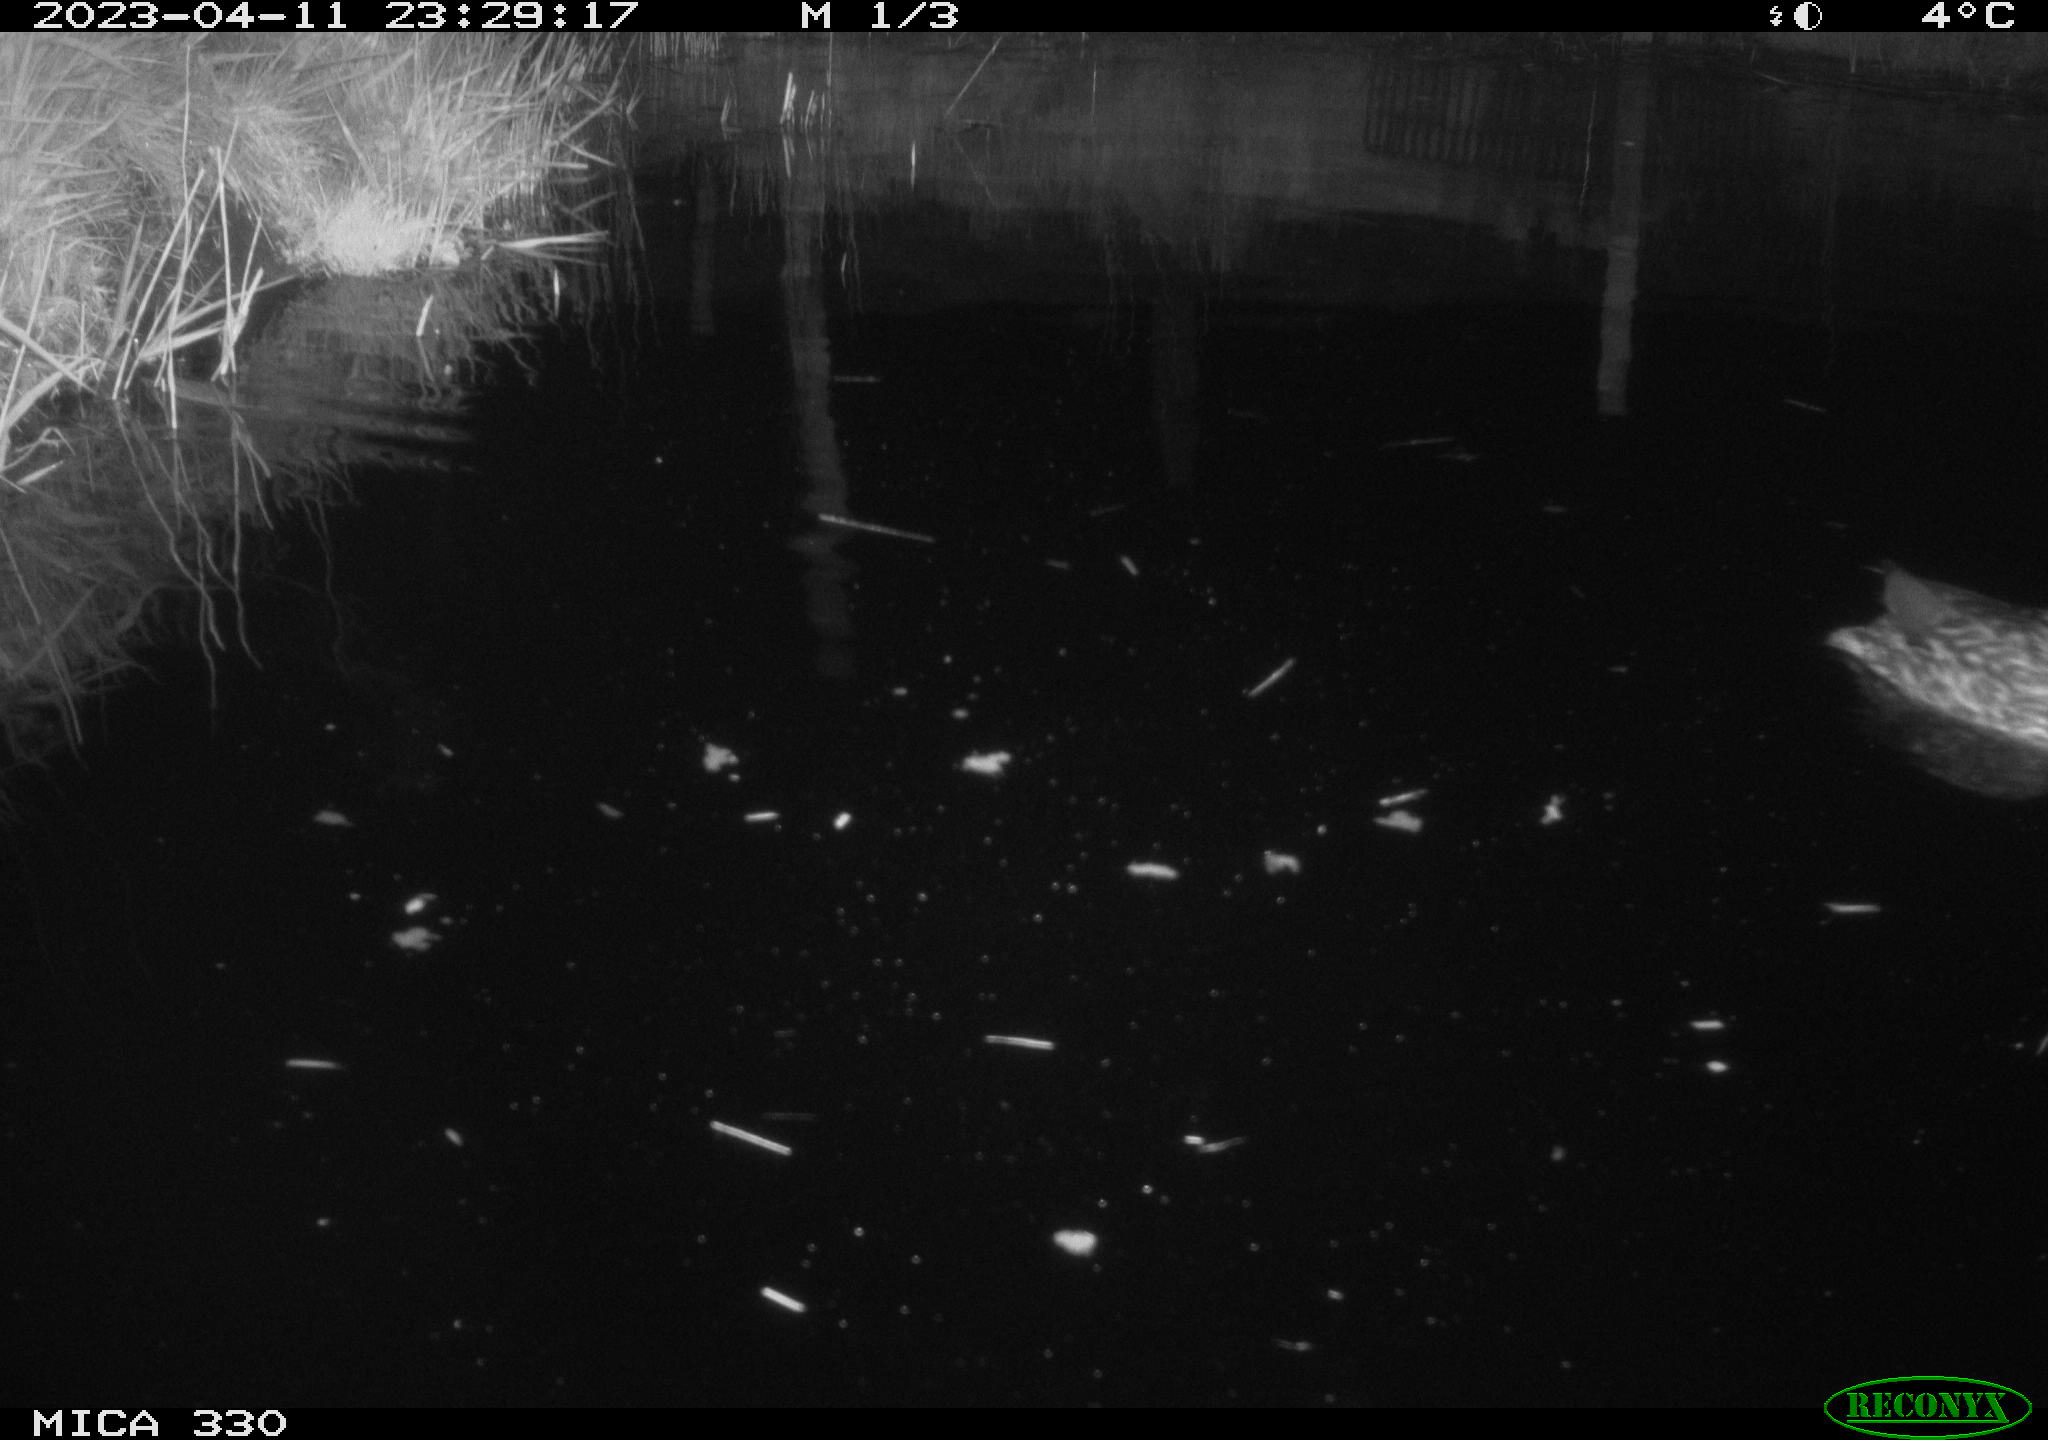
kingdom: Animalia
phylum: Chordata
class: Aves
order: Anseriformes
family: Anatidae
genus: Anas
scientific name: Anas
